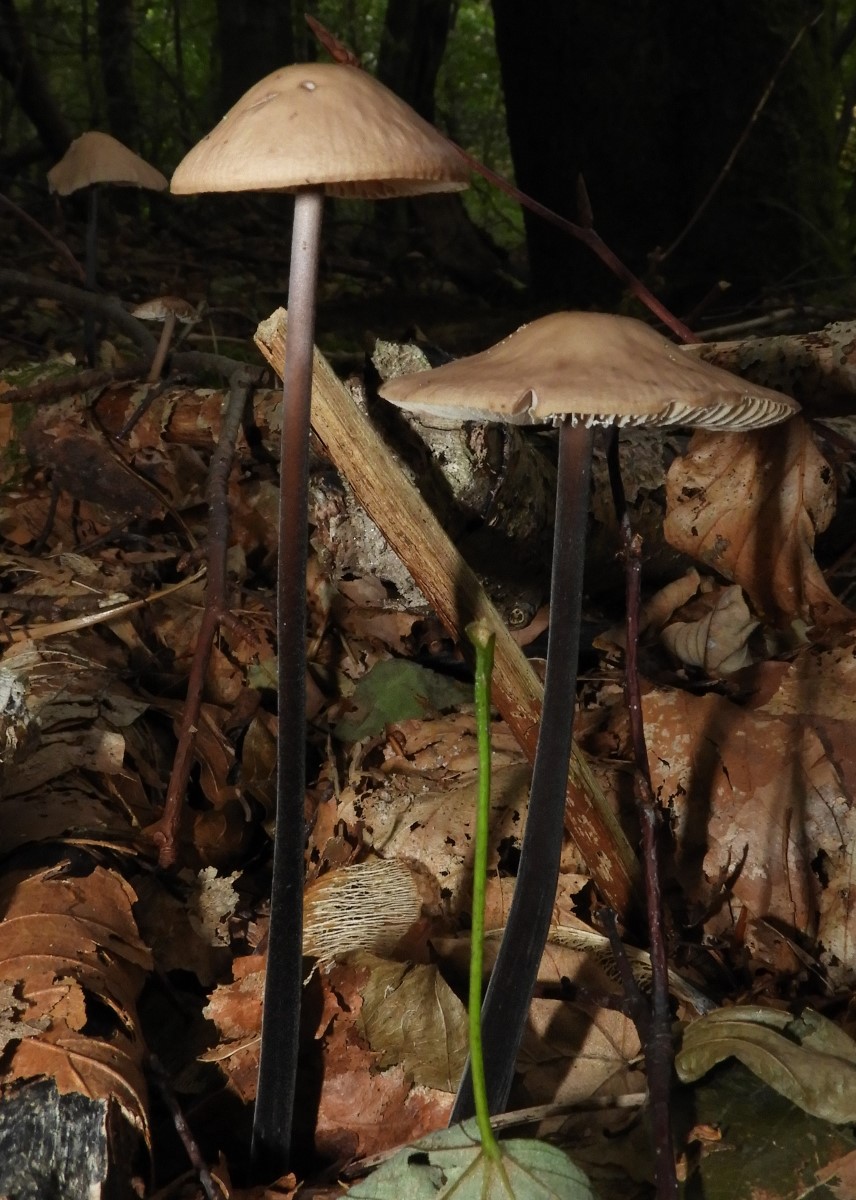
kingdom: Fungi
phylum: Basidiomycota
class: Agaricomycetes
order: Agaricales
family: Omphalotaceae
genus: Mycetinis
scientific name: Mycetinis alliaceus
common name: stor løghat
